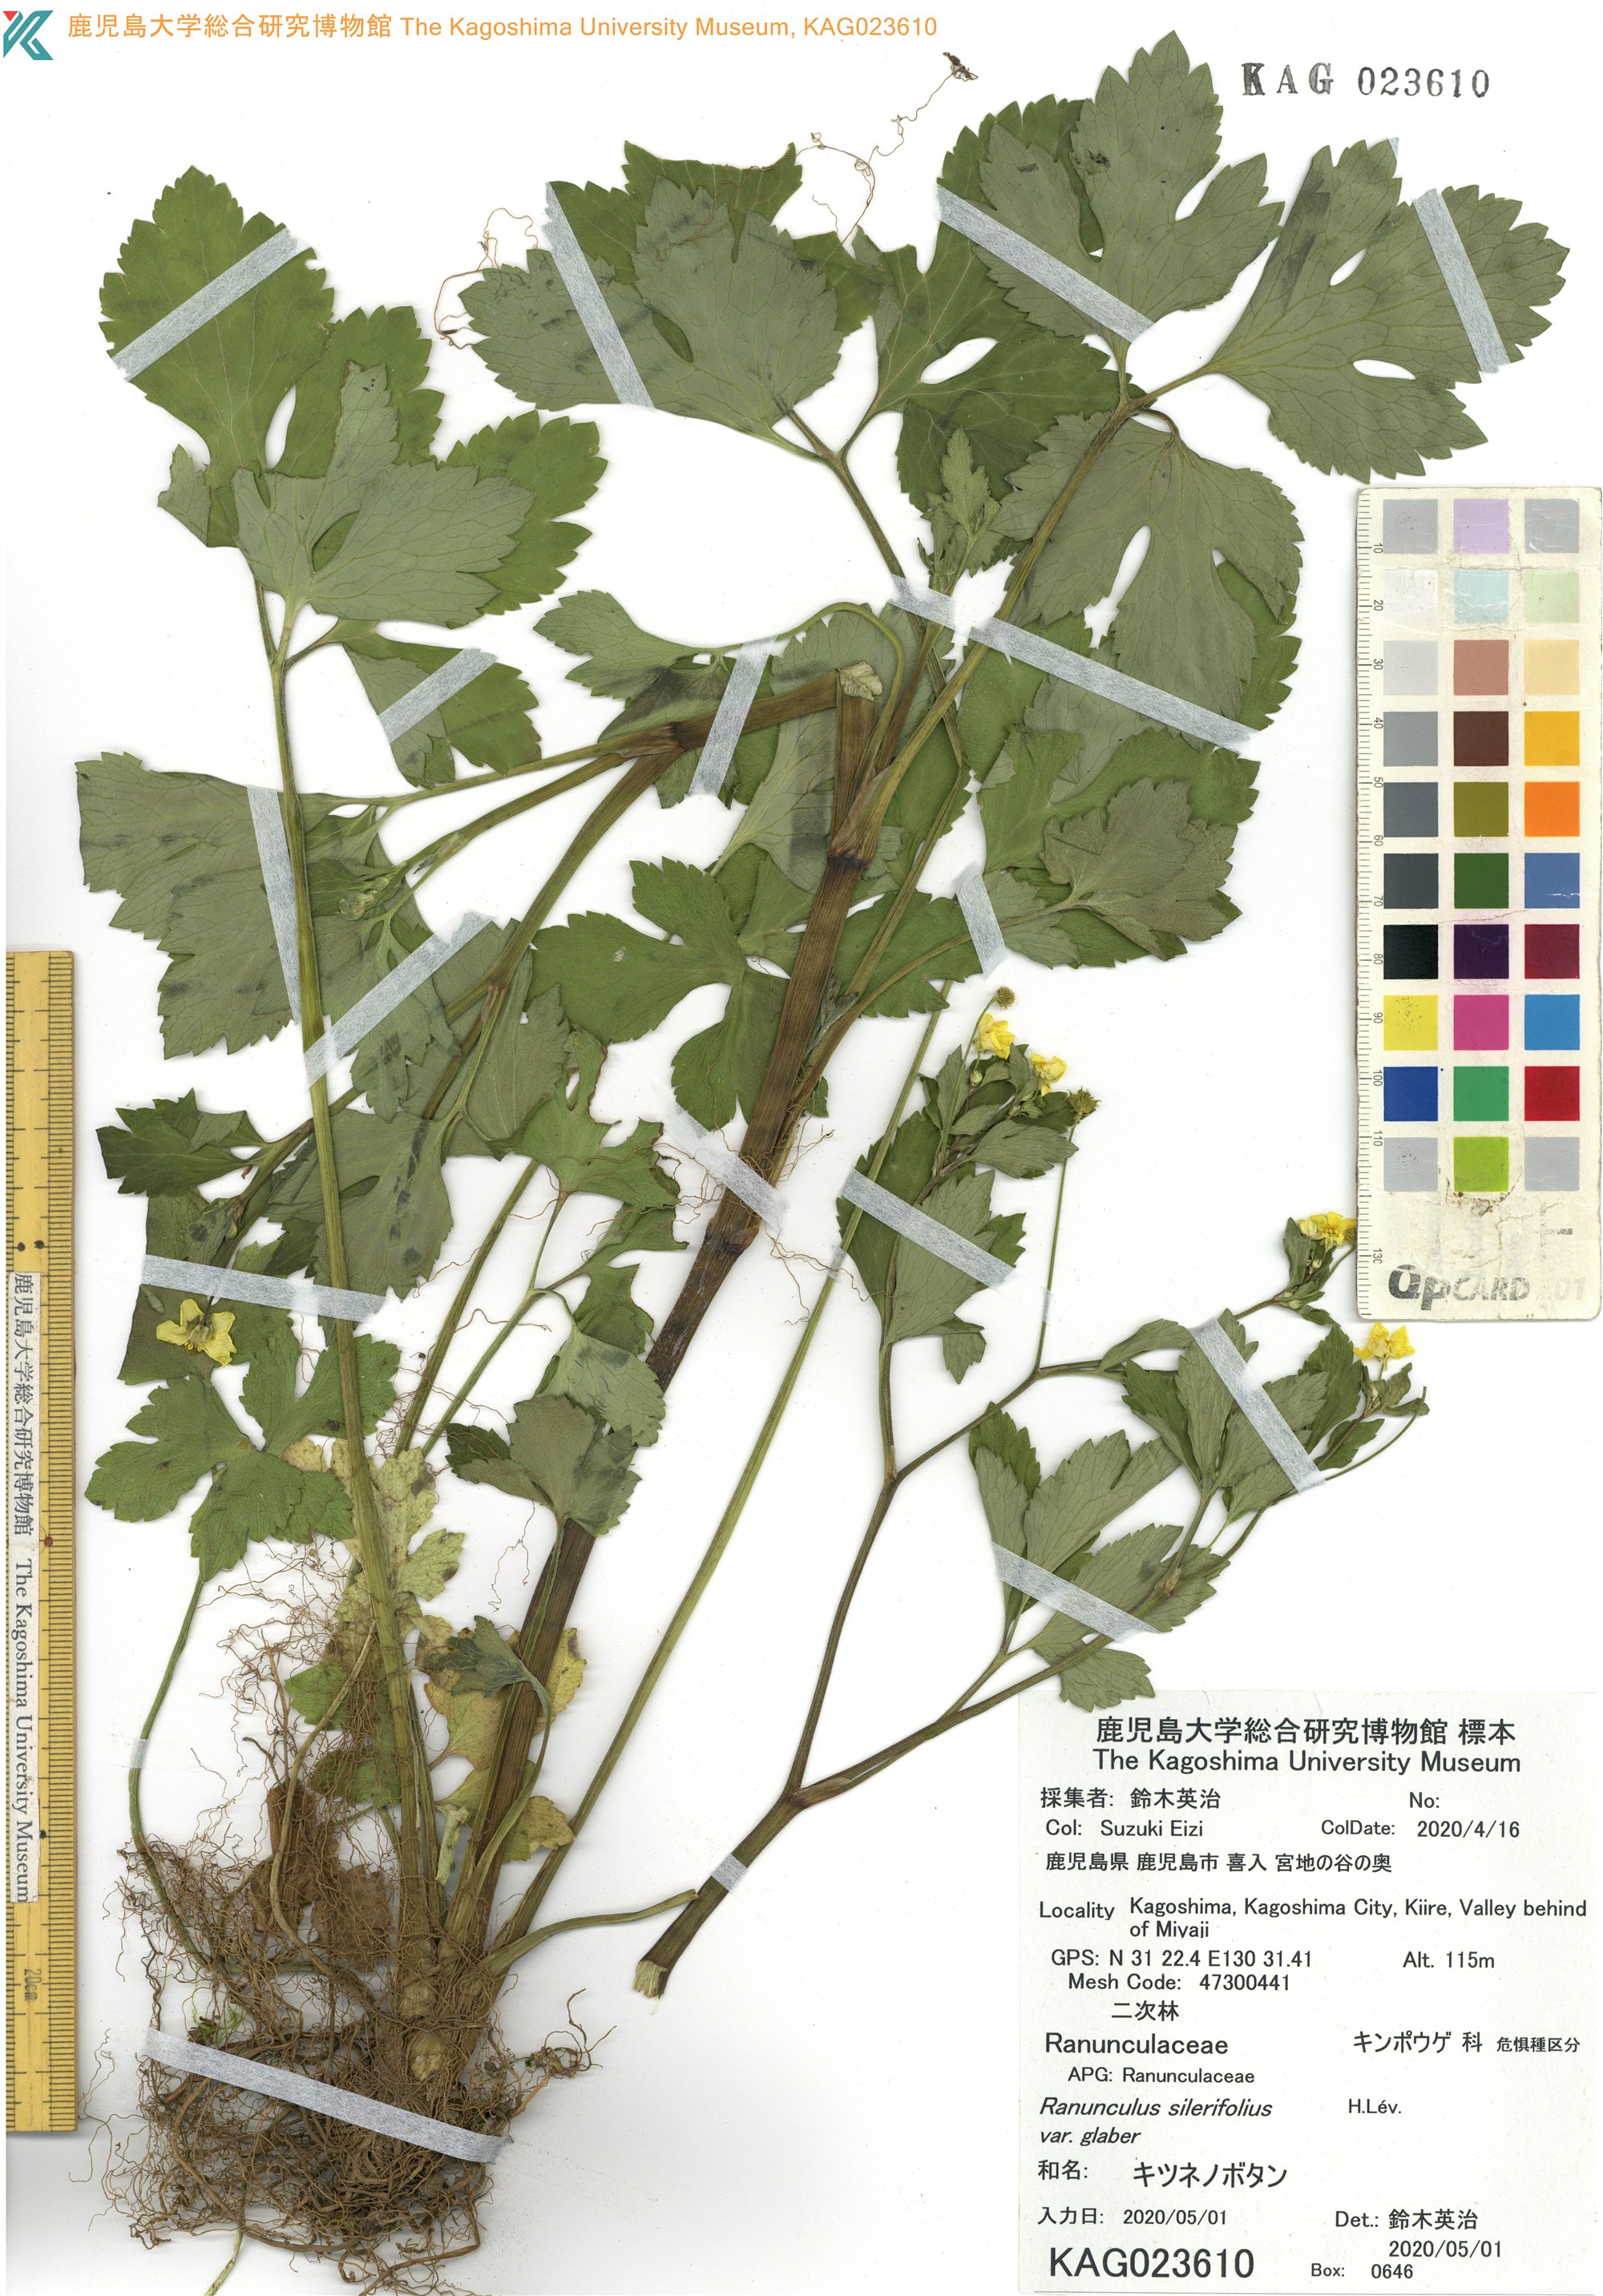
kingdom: Plantae
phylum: Tracheophyta
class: Magnoliopsida
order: Ranunculales
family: Ranunculaceae
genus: Ranunculus
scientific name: Ranunculus silerifolius
